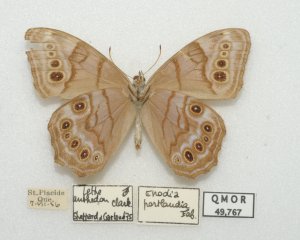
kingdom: Animalia
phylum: Arthropoda
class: Insecta
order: Lepidoptera
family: Nymphalidae
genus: Lethe
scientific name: Lethe anthedon
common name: Northern Pearly-Eye
